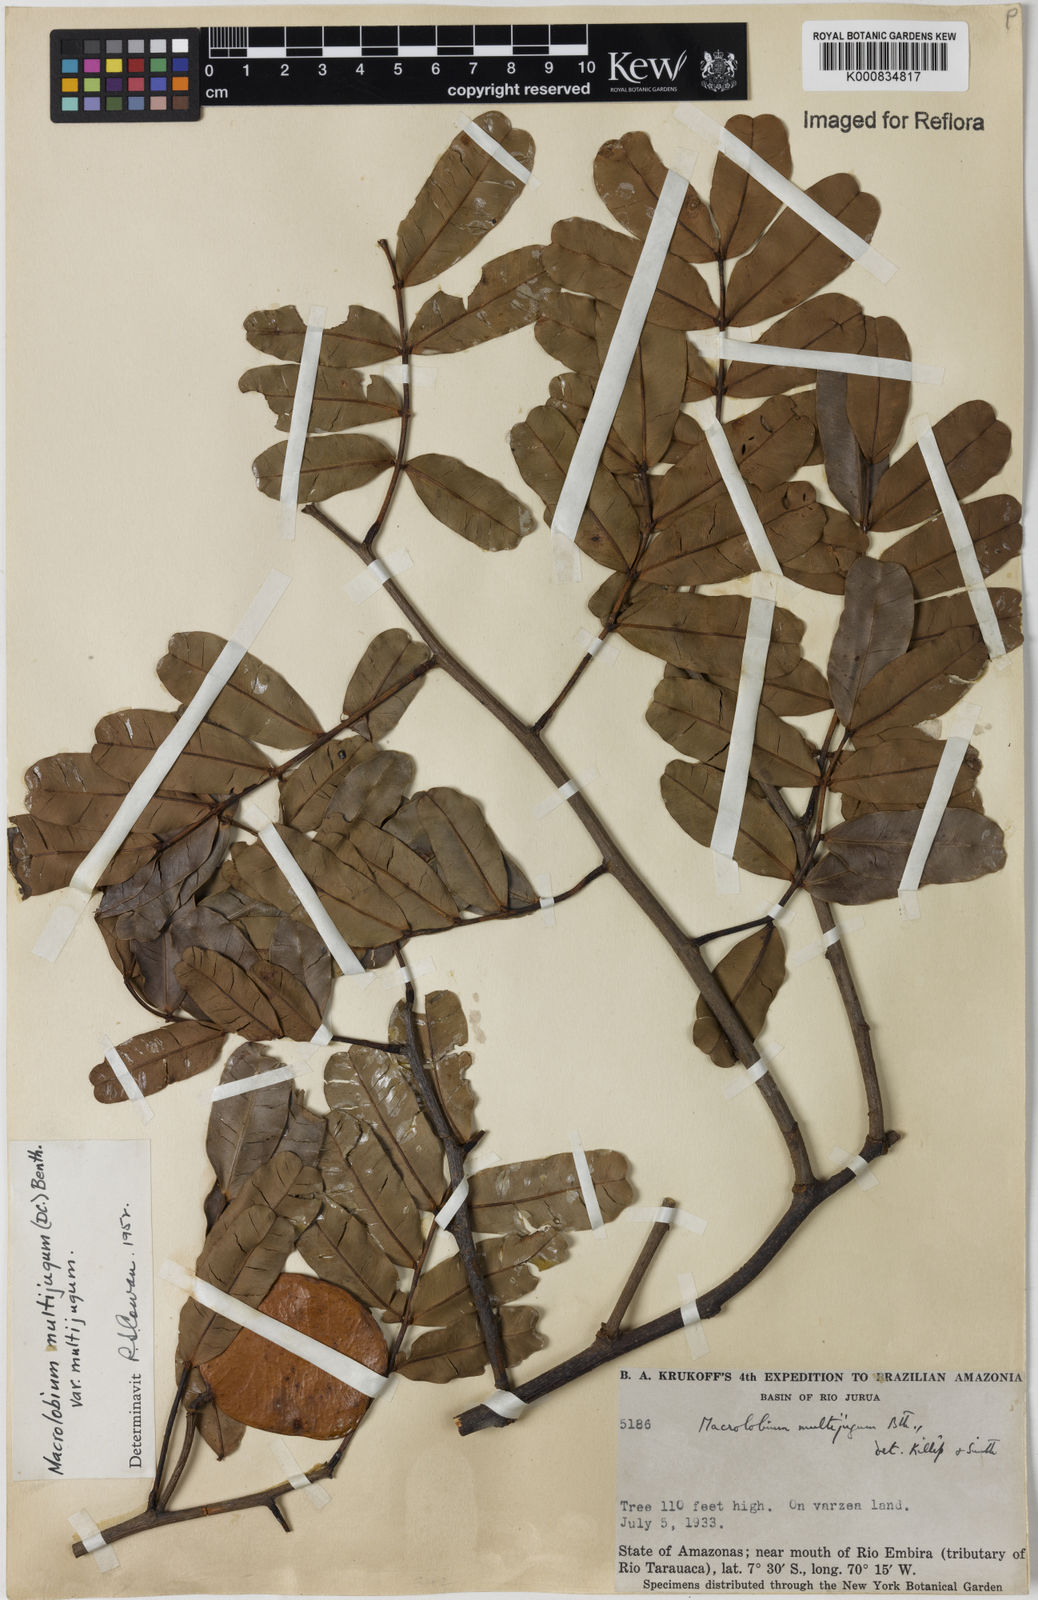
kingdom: Plantae
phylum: Tracheophyta
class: Magnoliopsida
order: Fabales
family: Fabaceae
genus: Macrolobium
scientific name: Macrolobium multijugum
